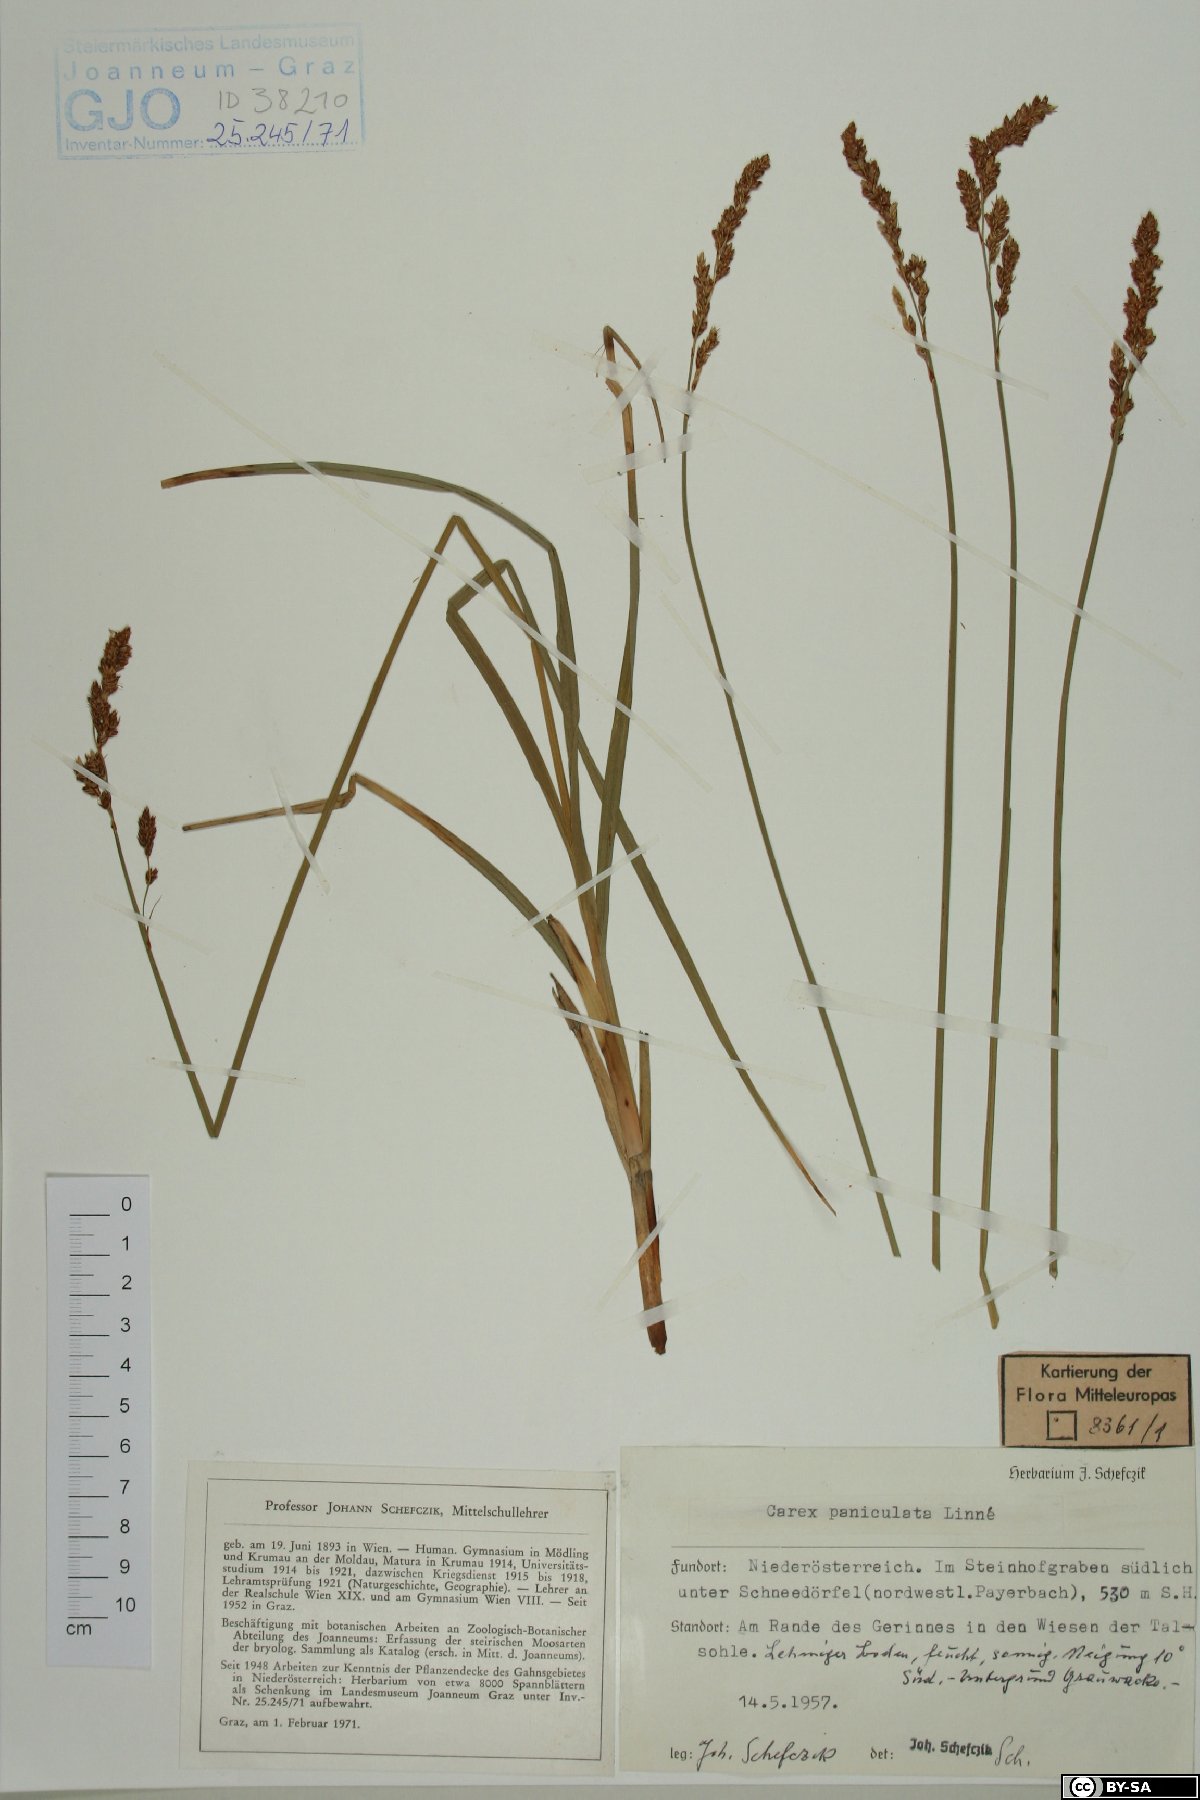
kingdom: Plantae
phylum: Tracheophyta
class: Liliopsida
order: Poales
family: Cyperaceae
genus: Carex
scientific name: Carex paniculata
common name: Greater tussock-sedge
